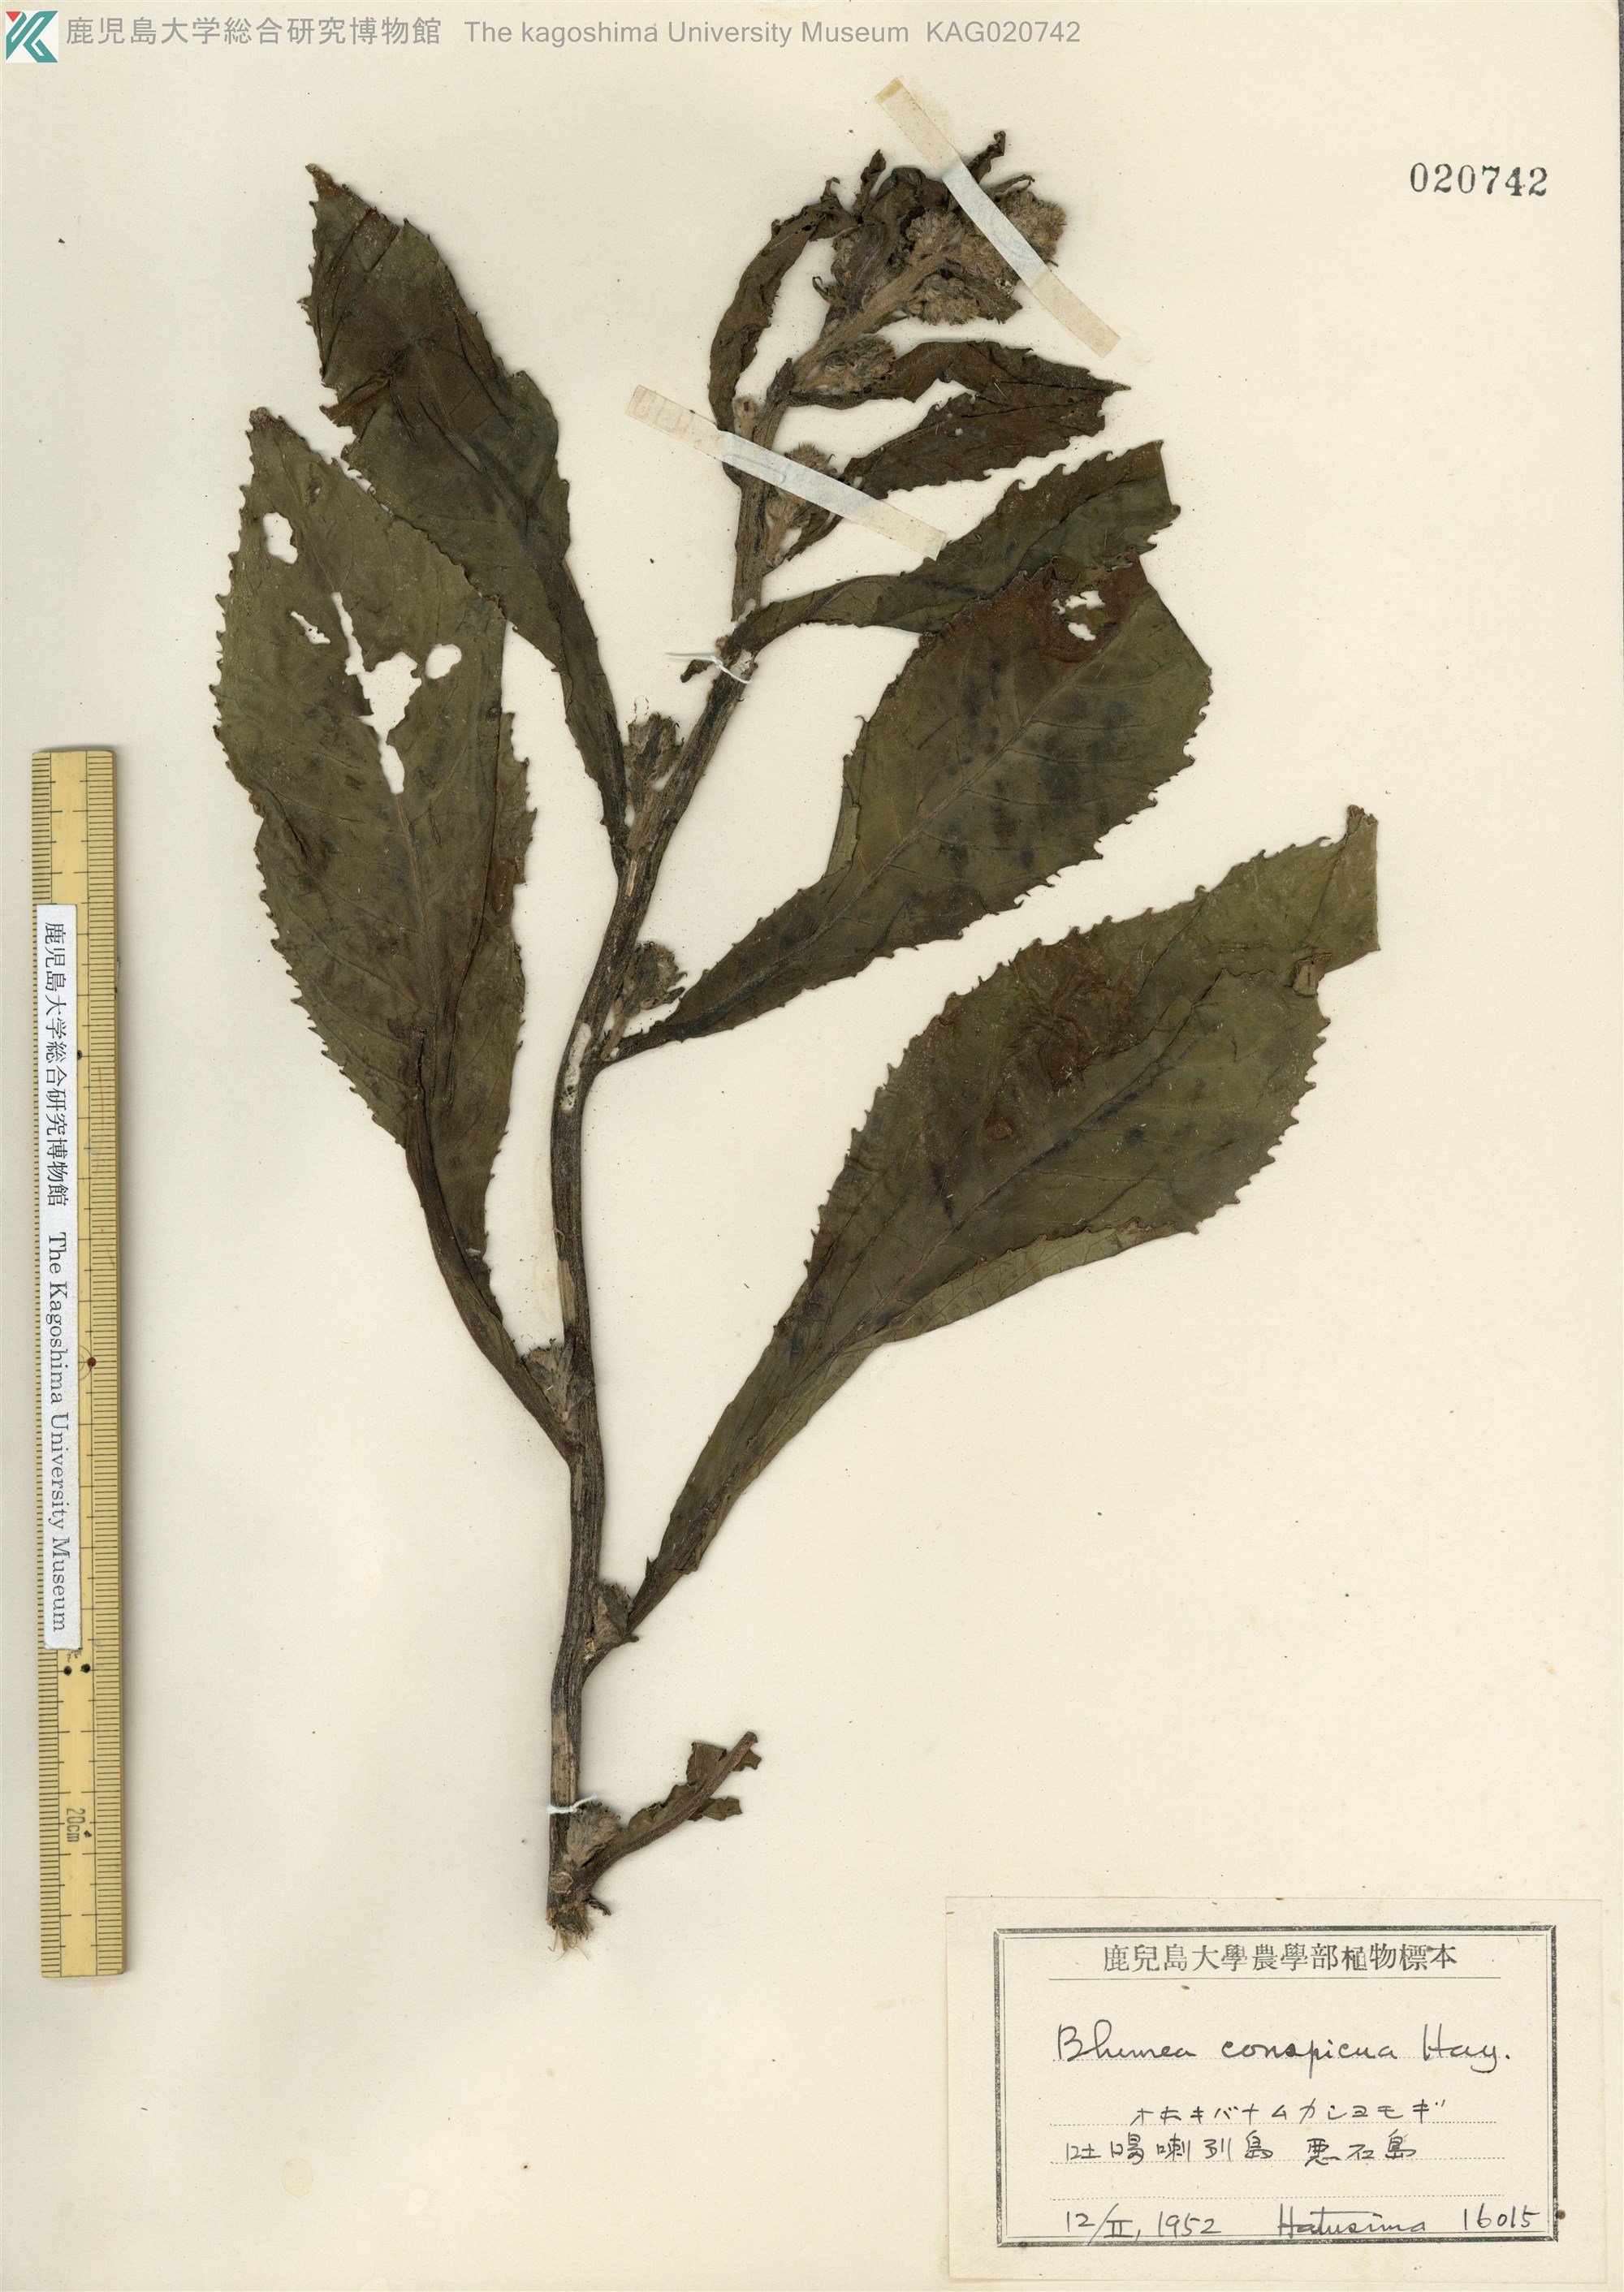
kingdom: Plantae
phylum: Tracheophyta
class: Magnoliopsida
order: Asterales
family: Asteraceae
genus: Blumea
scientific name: Blumea conspicua
